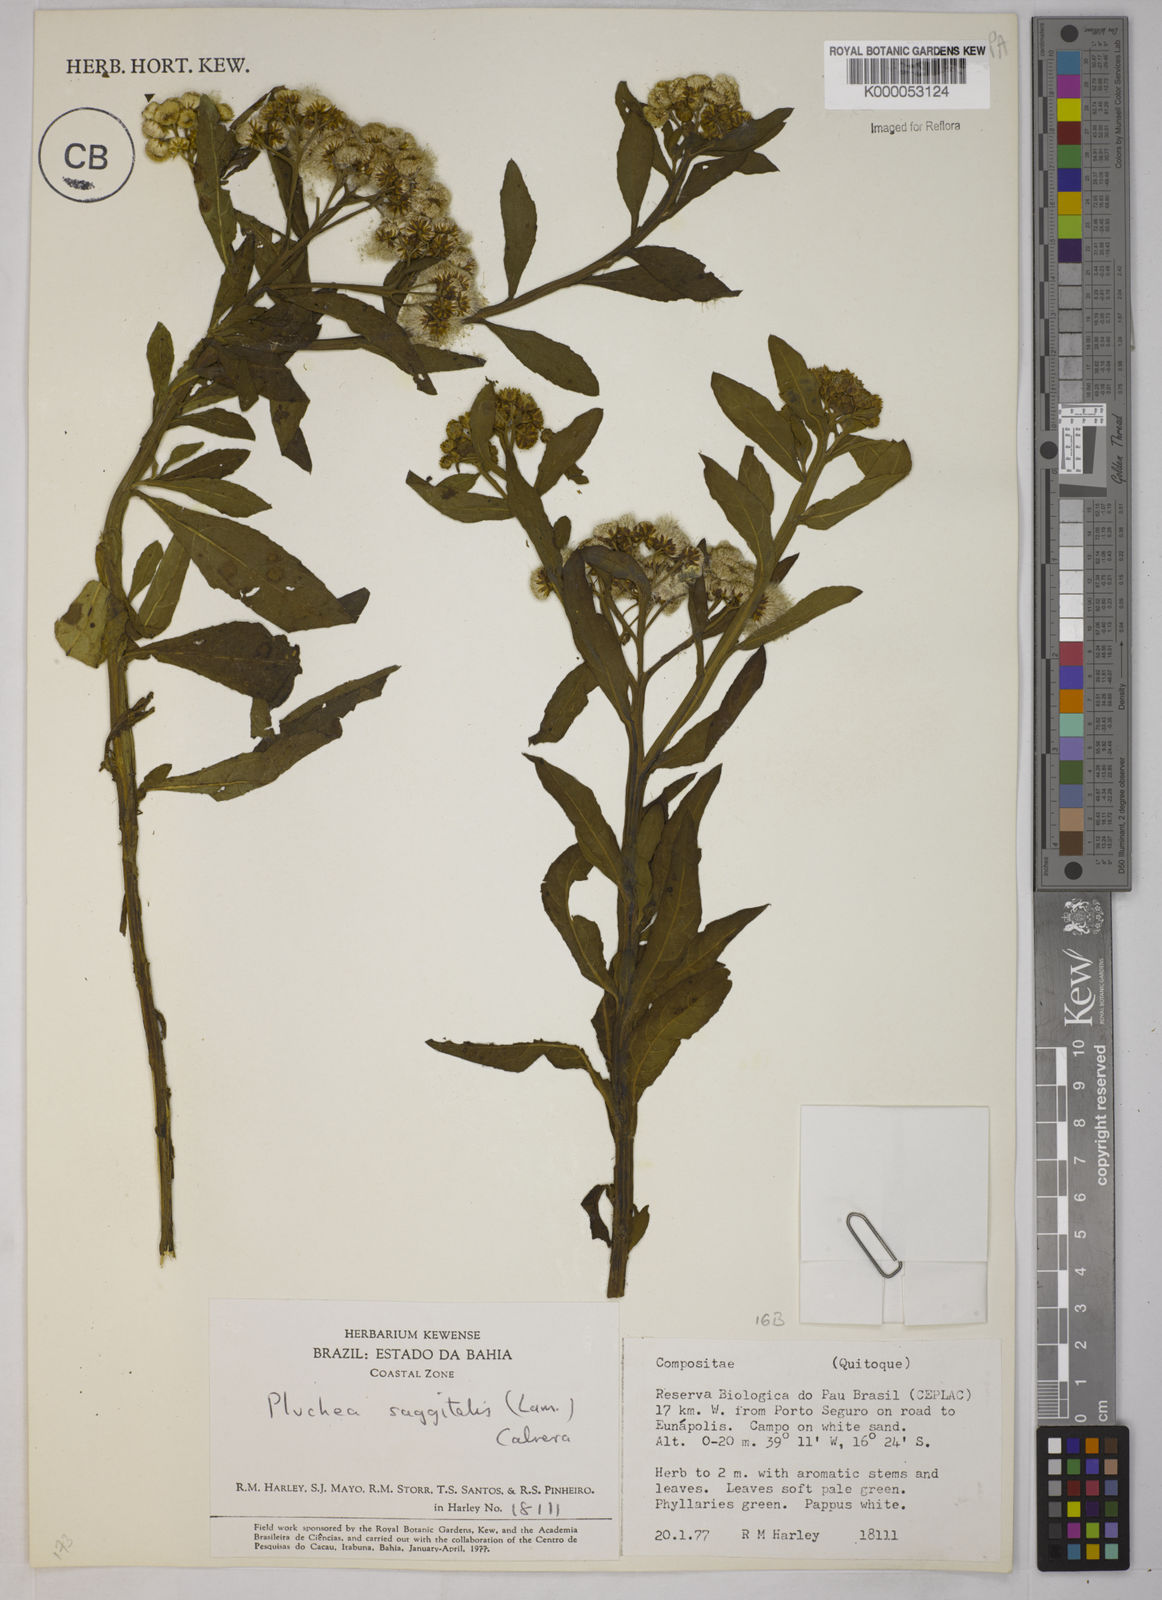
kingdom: Plantae
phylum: Tracheophyta
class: Magnoliopsida
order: Asterales
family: Asteraceae
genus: Pluchea
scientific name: Pluchea sagittalis
